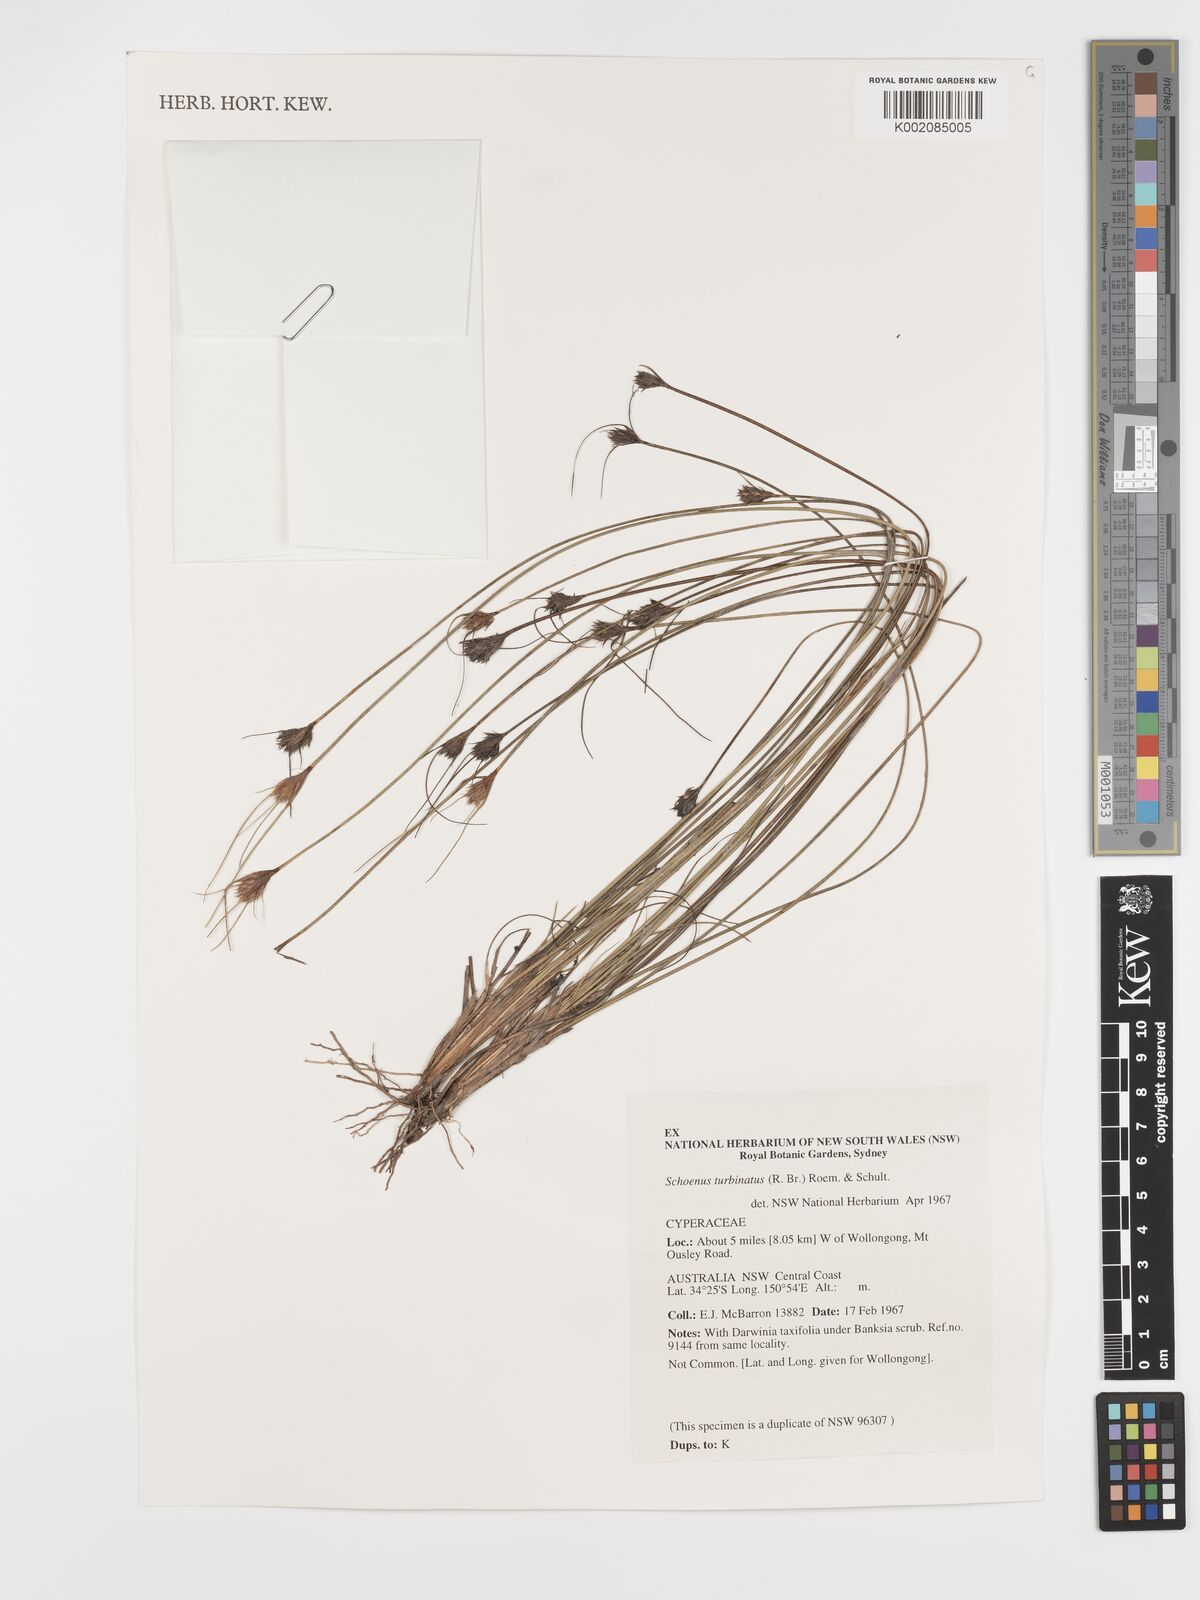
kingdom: Plantae
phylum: Tracheophyta
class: Liliopsida
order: Poales
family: Cyperaceae
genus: Schoenus
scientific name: Schoenus turbinatus
